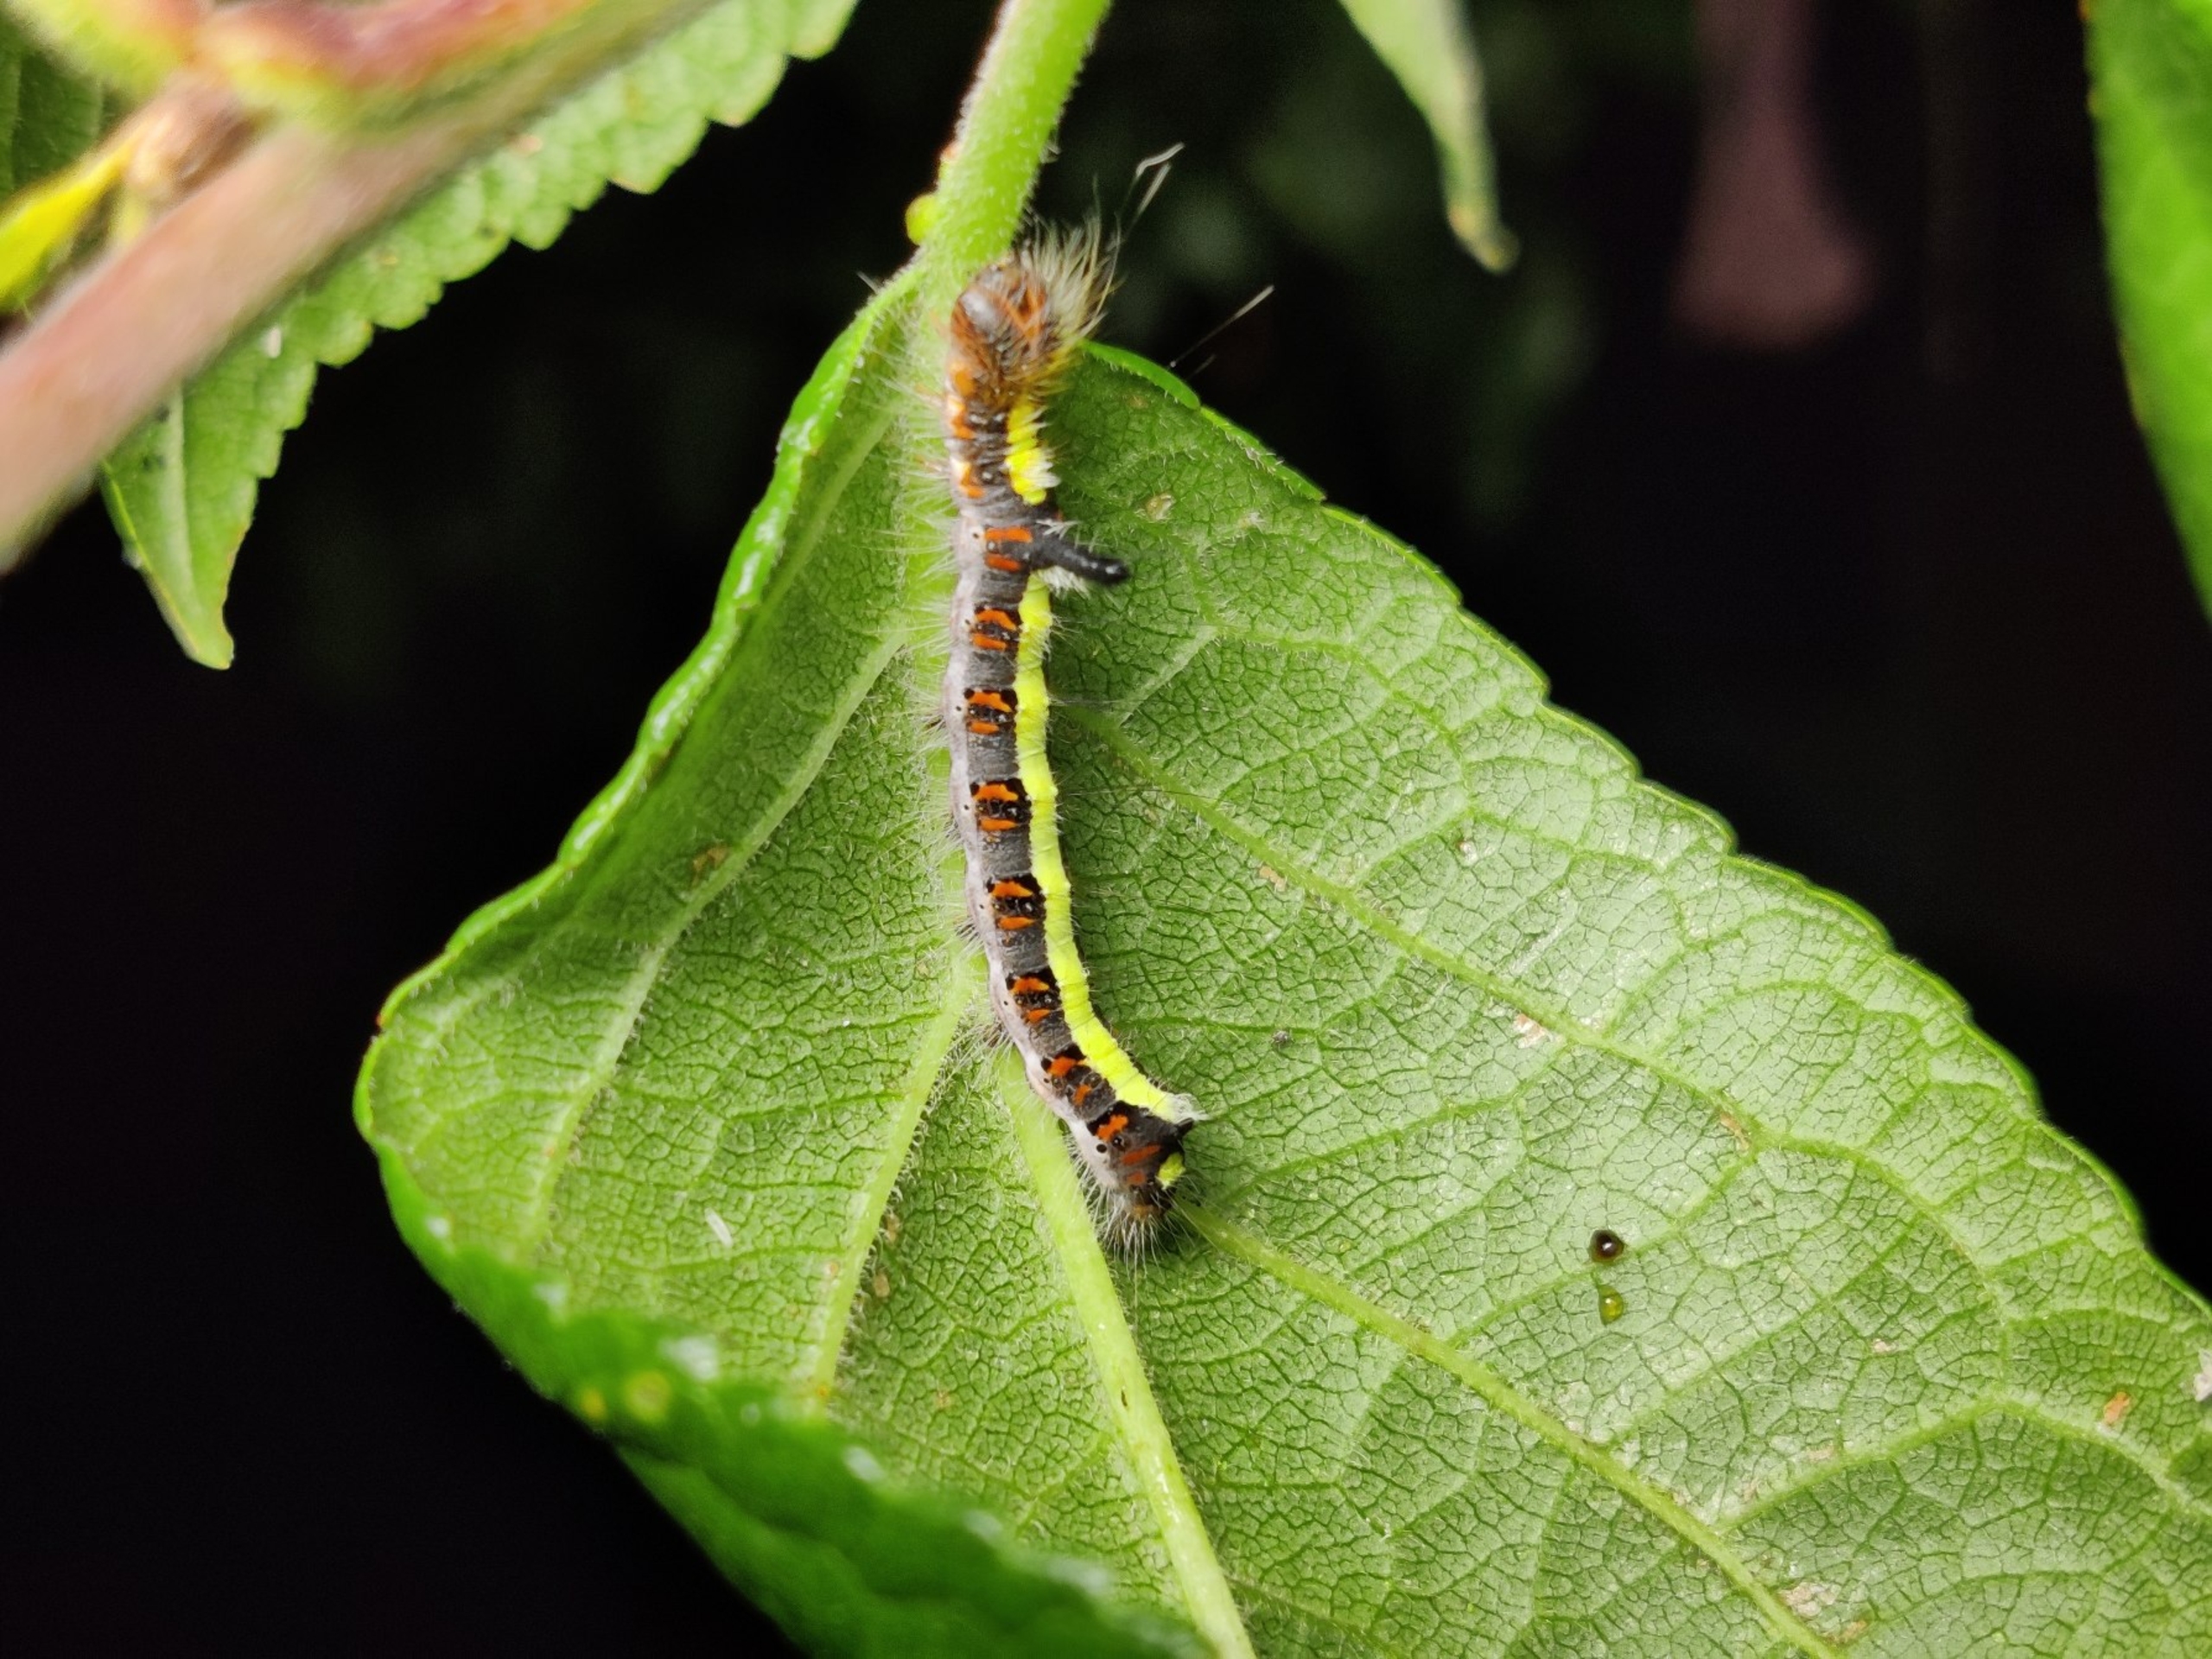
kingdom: Animalia
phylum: Arthropoda
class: Insecta
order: Lepidoptera
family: Noctuidae
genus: Acronicta
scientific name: Acronicta psi
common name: Psi-ugle
